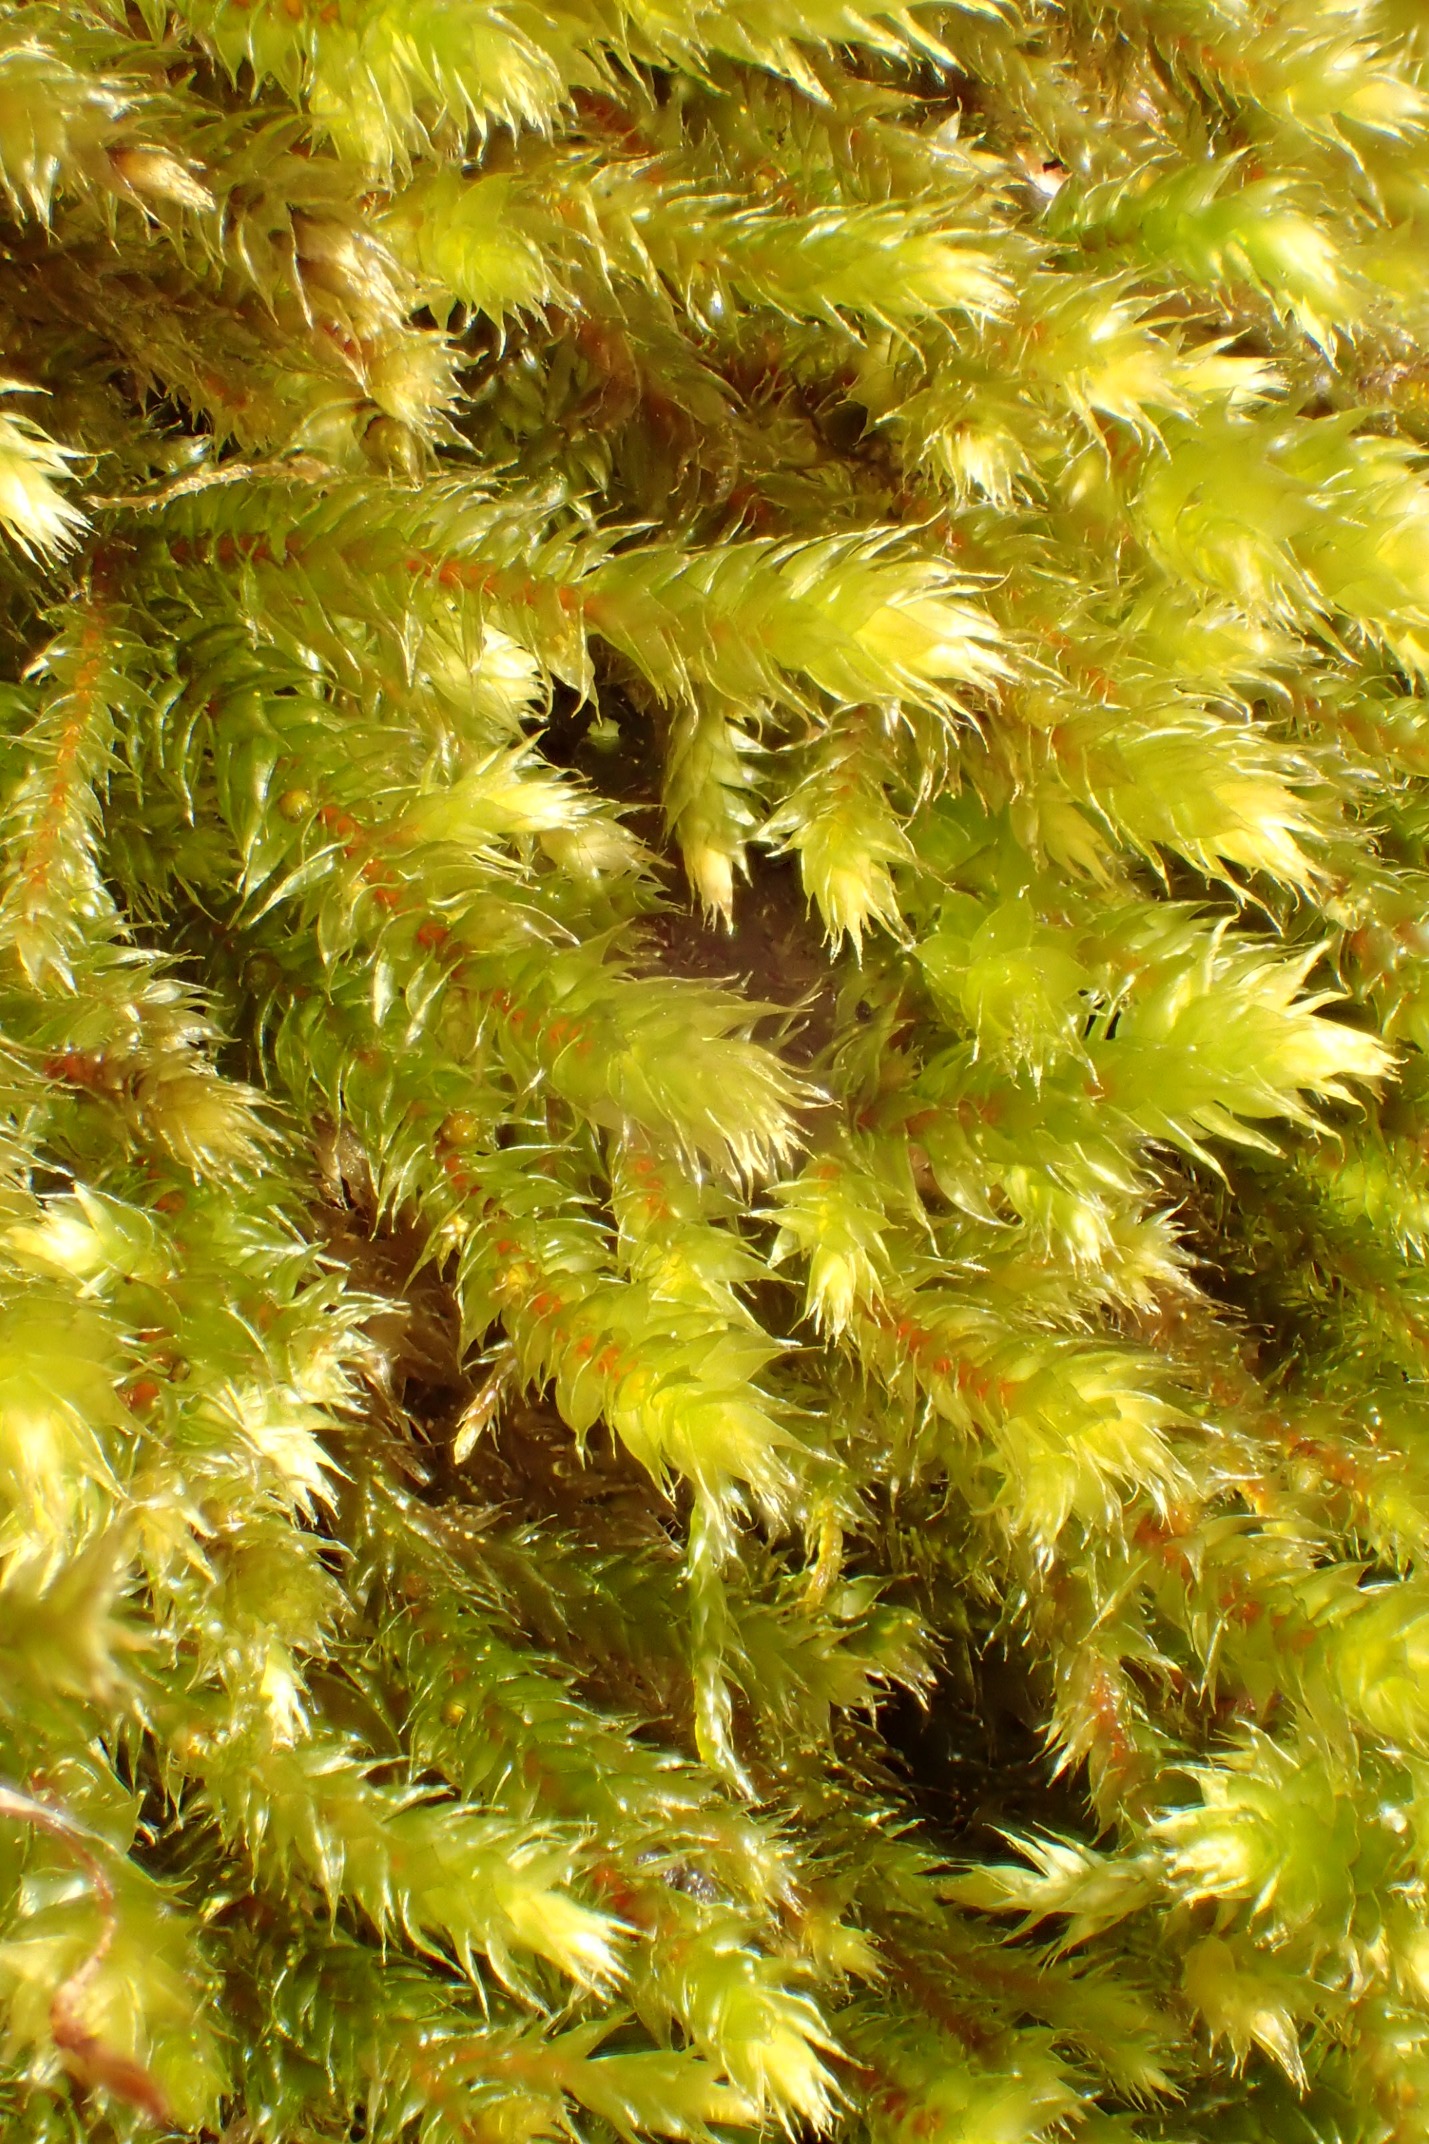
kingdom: Plantae
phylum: Bryophyta
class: Bryopsida
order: Hypnales
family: Antitrichiaceae
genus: Antitrichia
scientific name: Antitrichia curtipendula
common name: Åben krogtand
